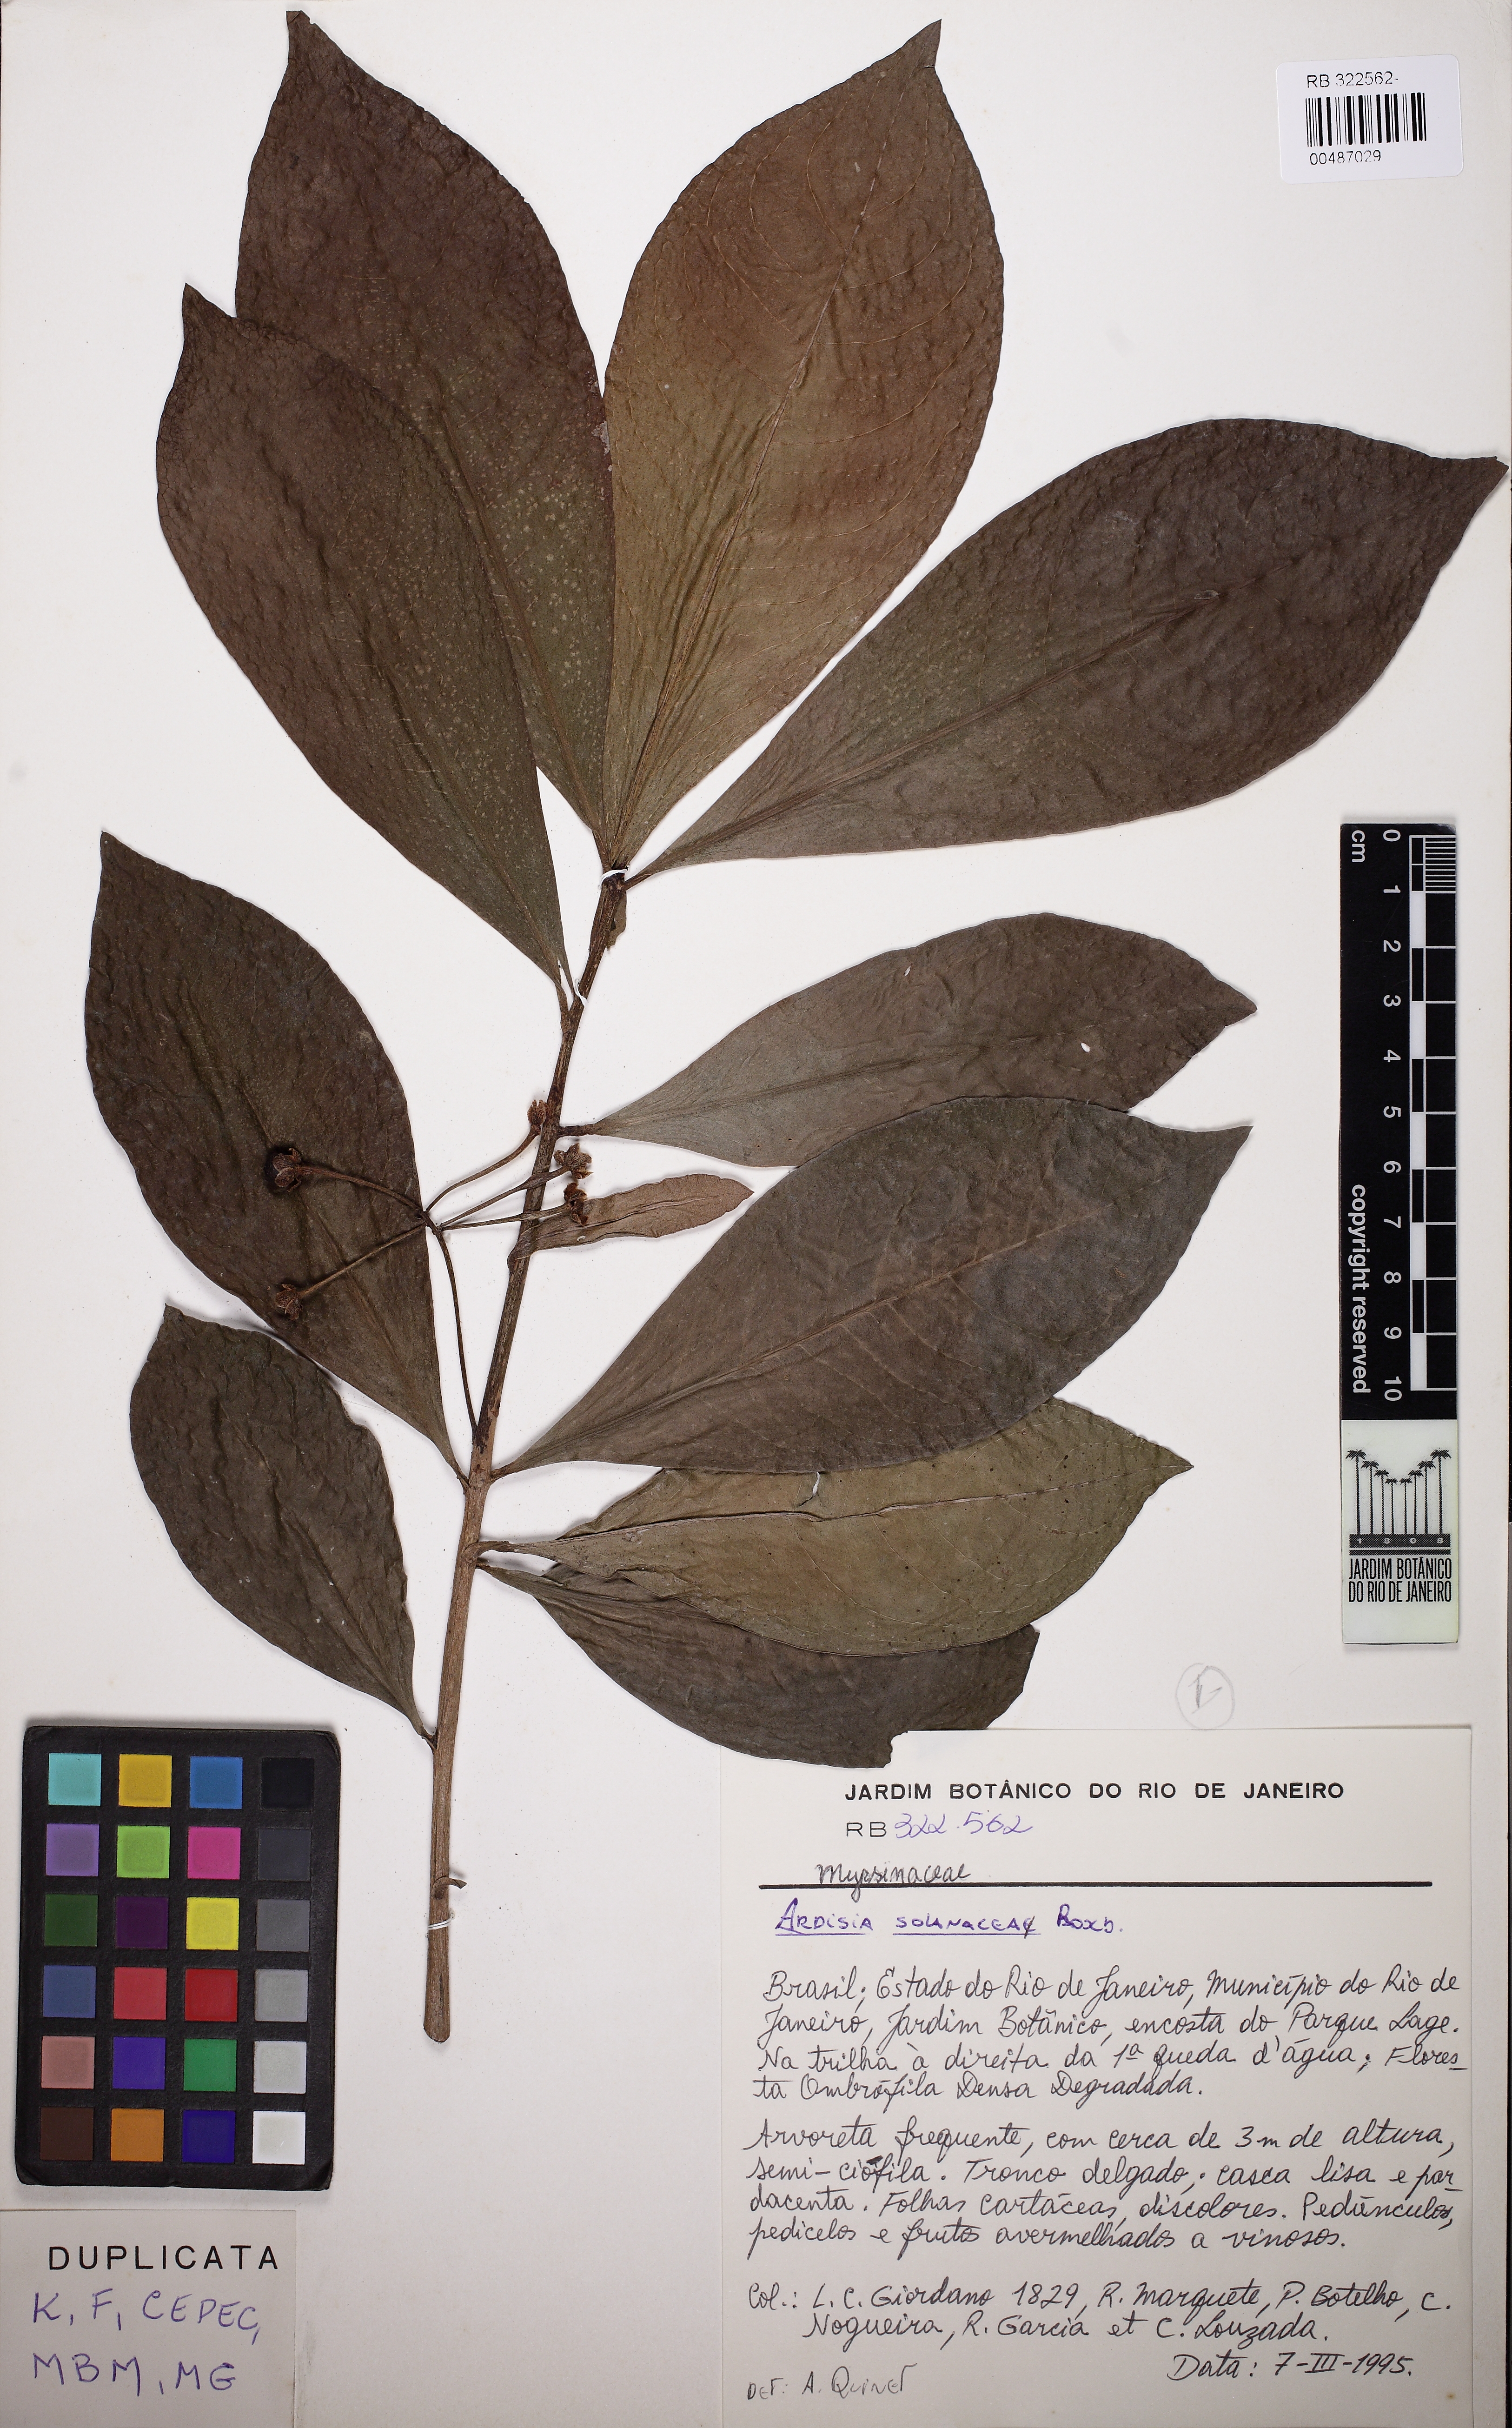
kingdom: Plantae
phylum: Tracheophyta
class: Magnoliopsida
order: Ericales
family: Primulaceae
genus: Ardisia
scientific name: Ardisia humilis
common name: Low shoebutton
